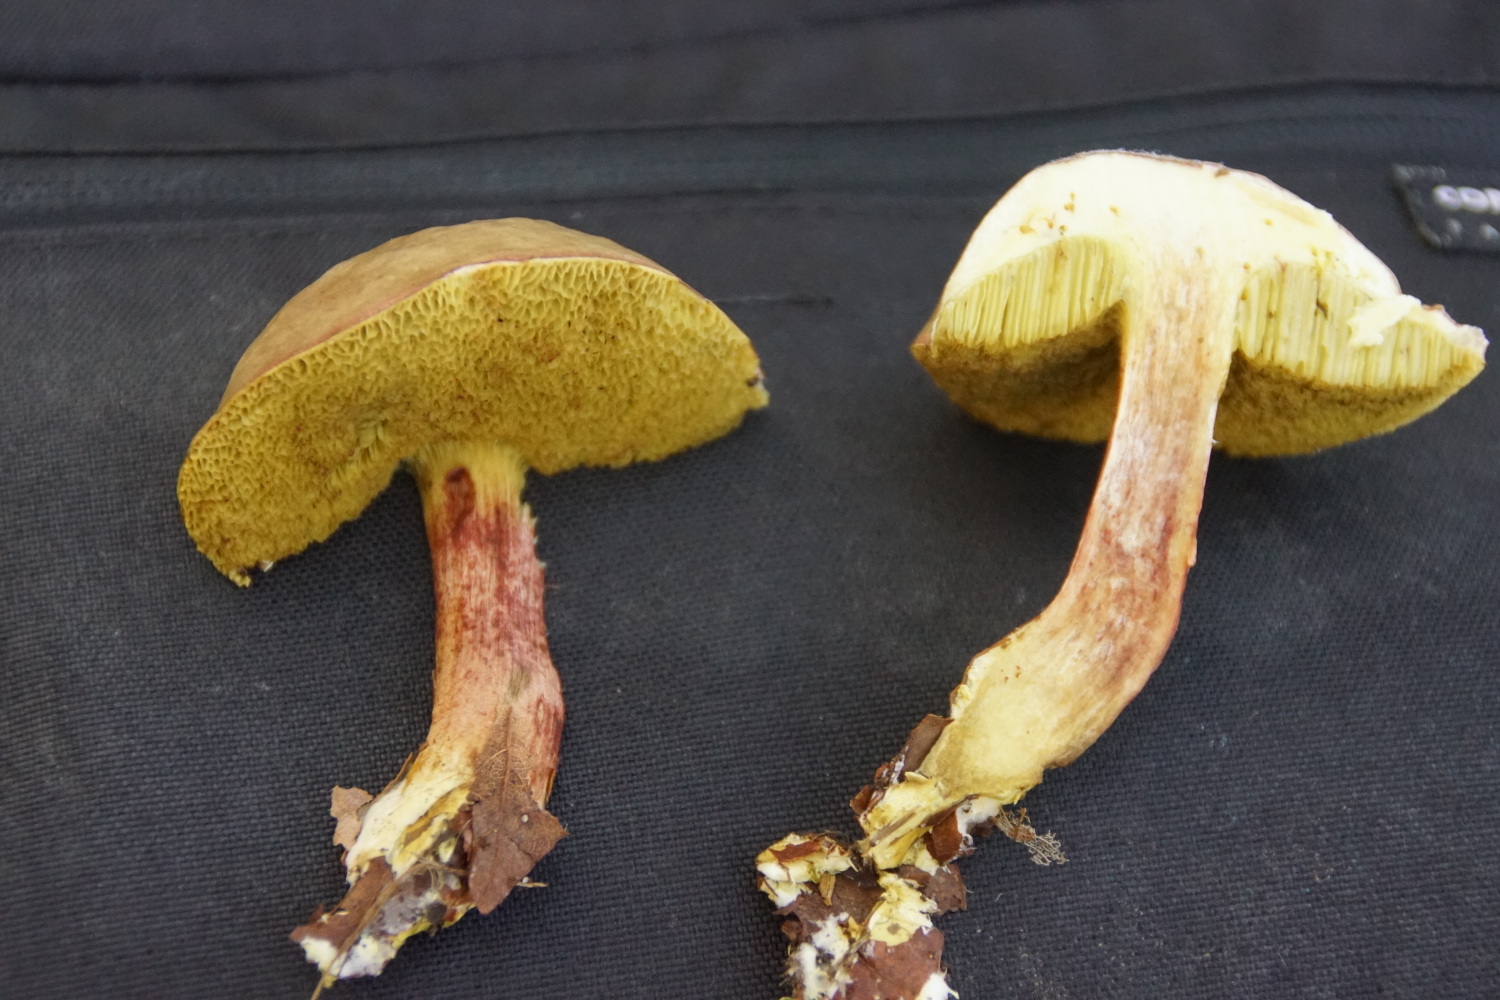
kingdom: Fungi
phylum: Basidiomycota
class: Agaricomycetes
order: Boletales
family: Boletaceae
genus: Xerocomellus
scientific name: Xerocomellus pruinatus
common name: dugget rørhat
